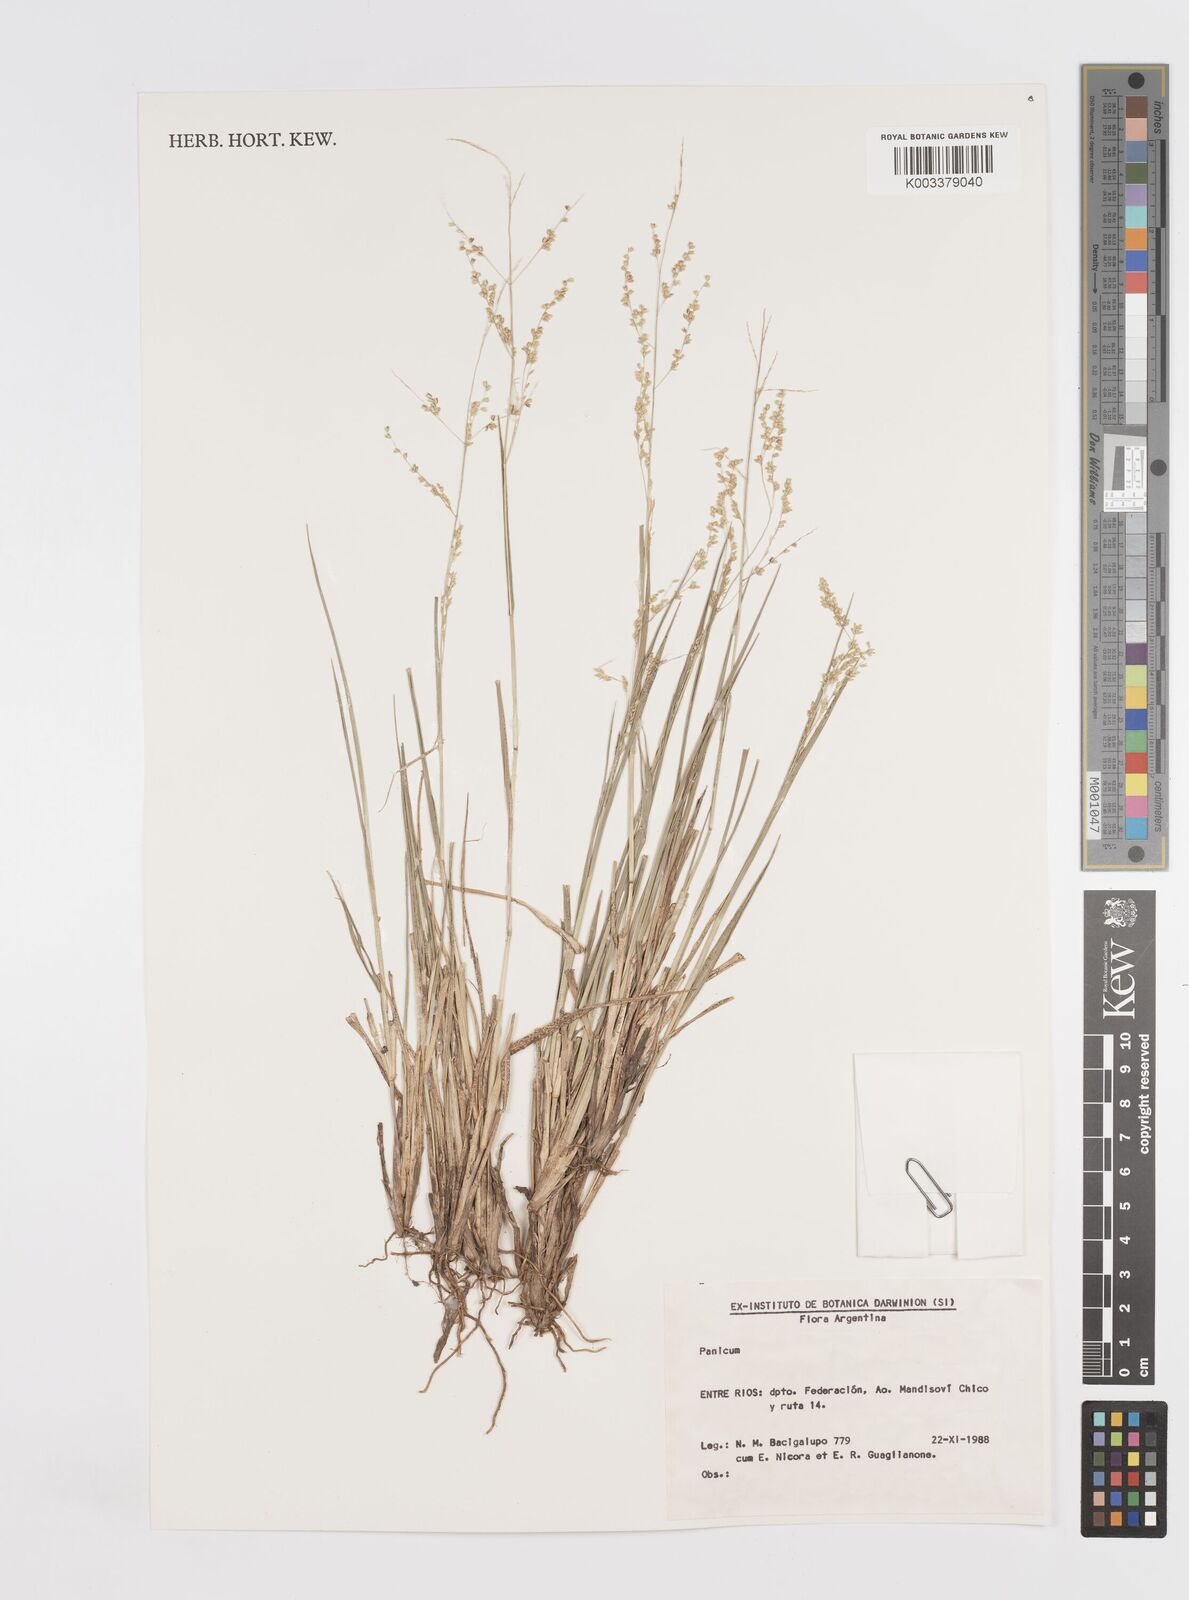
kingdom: Plantae
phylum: Tracheophyta
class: Liliopsida
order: Poales
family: Poaceae
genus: Steinchisma
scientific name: Steinchisma hians
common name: Gaping panic grass
